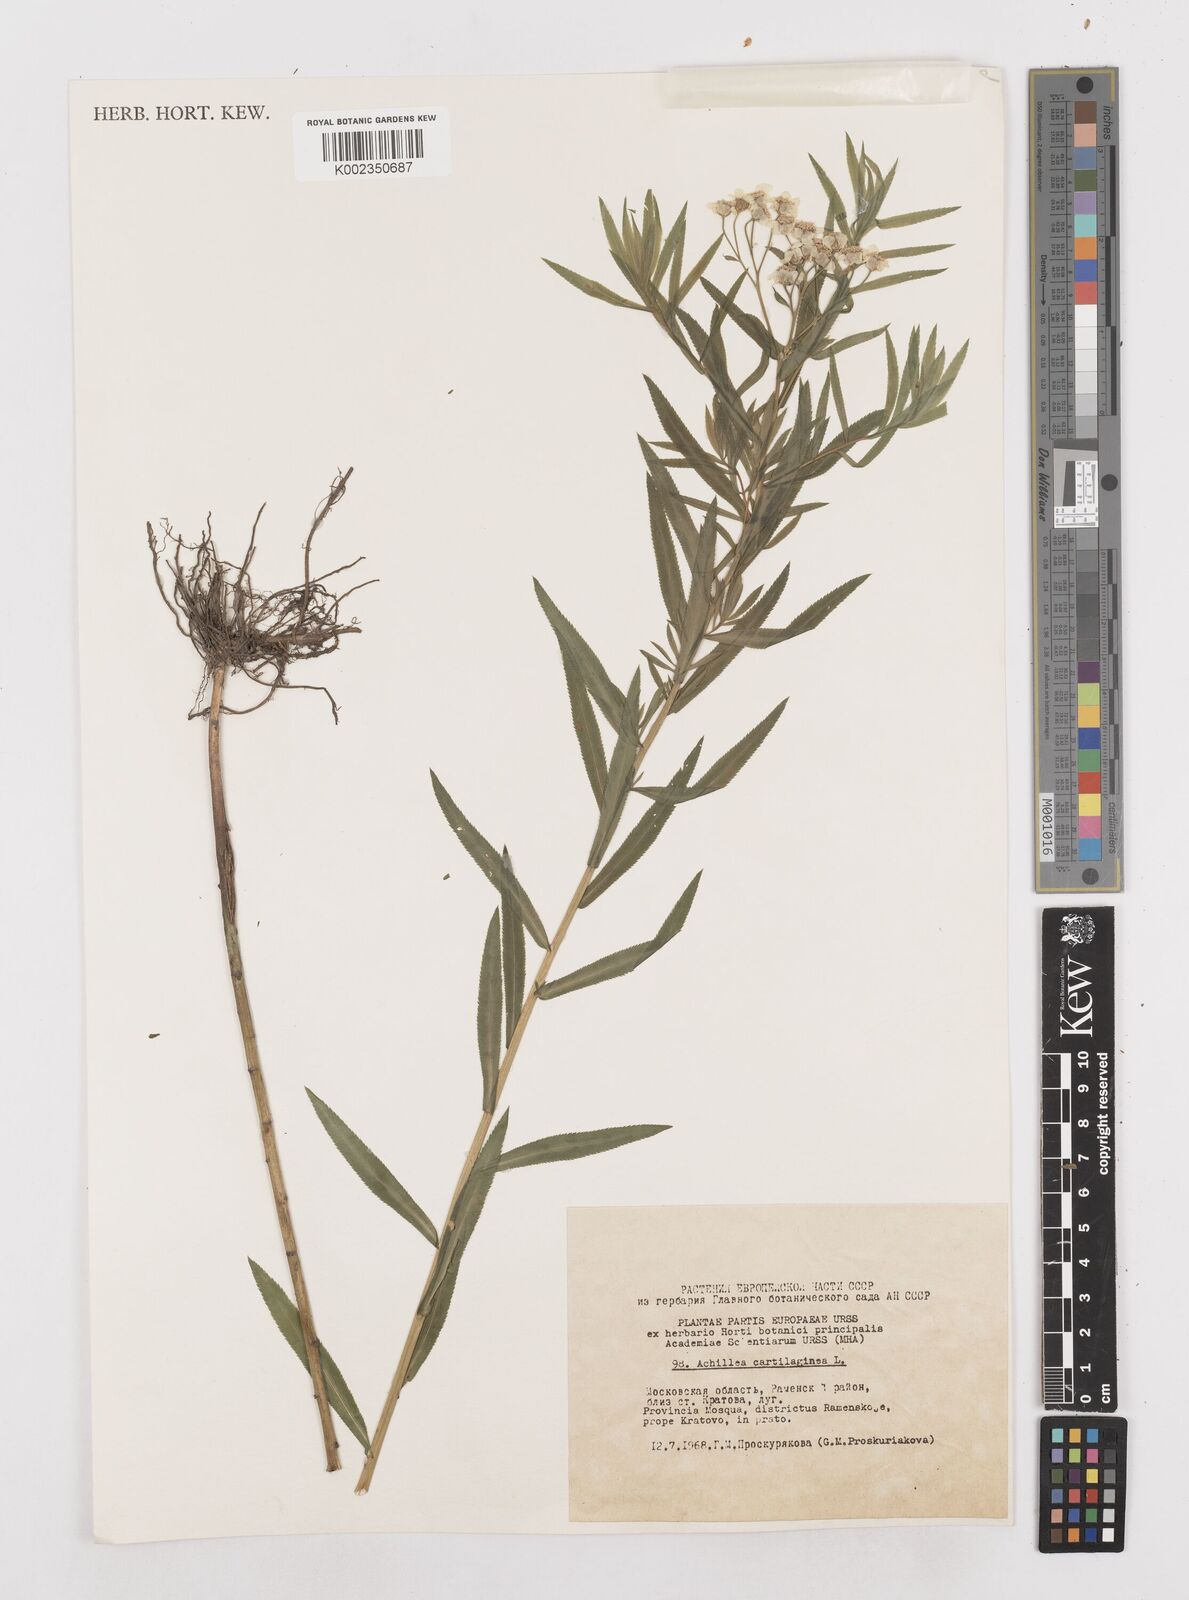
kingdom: Plantae
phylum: Tracheophyta
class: Magnoliopsida
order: Asterales
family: Asteraceae
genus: Achillea
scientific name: Achillea salicifolia
